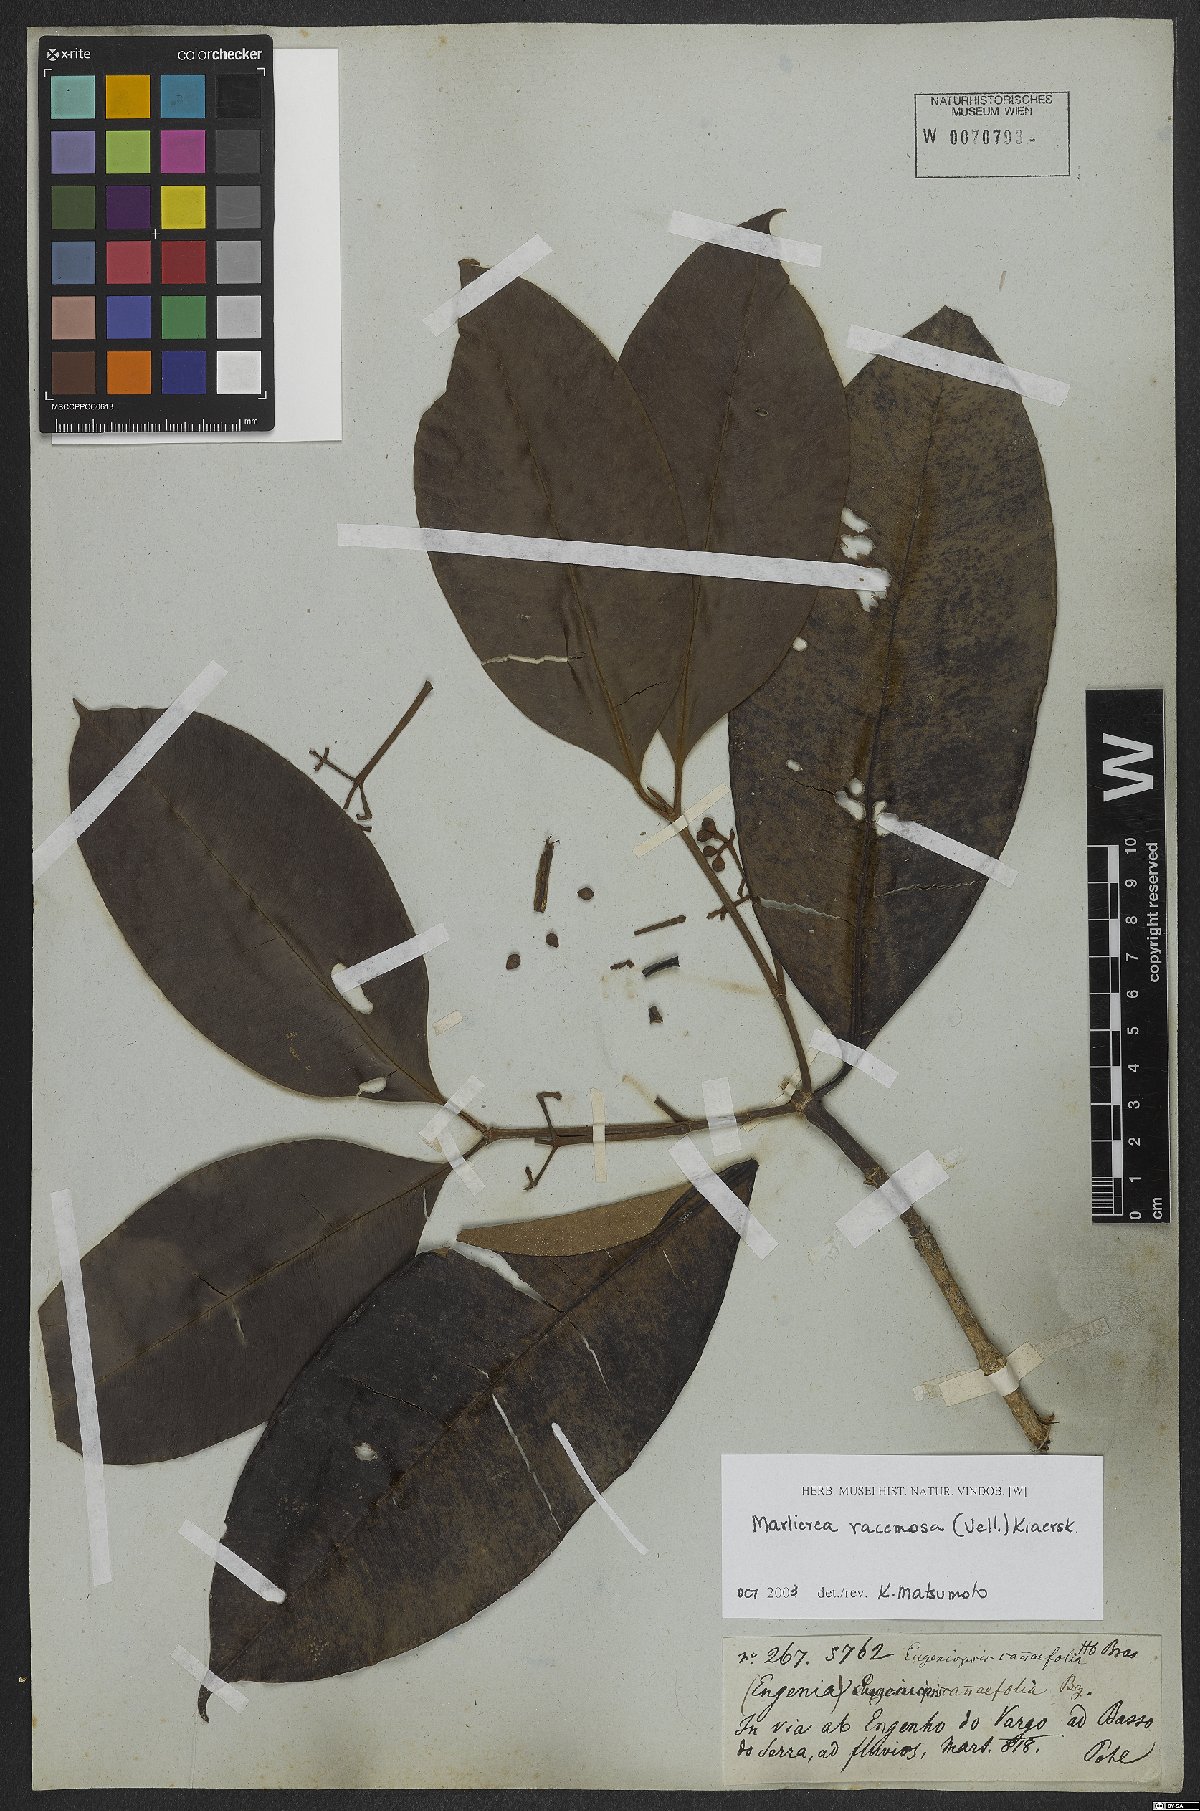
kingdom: Plantae
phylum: Tracheophyta
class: Magnoliopsida
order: Myrtales
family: Myrtaceae
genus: Myrcia
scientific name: Myrcia vellozoi
